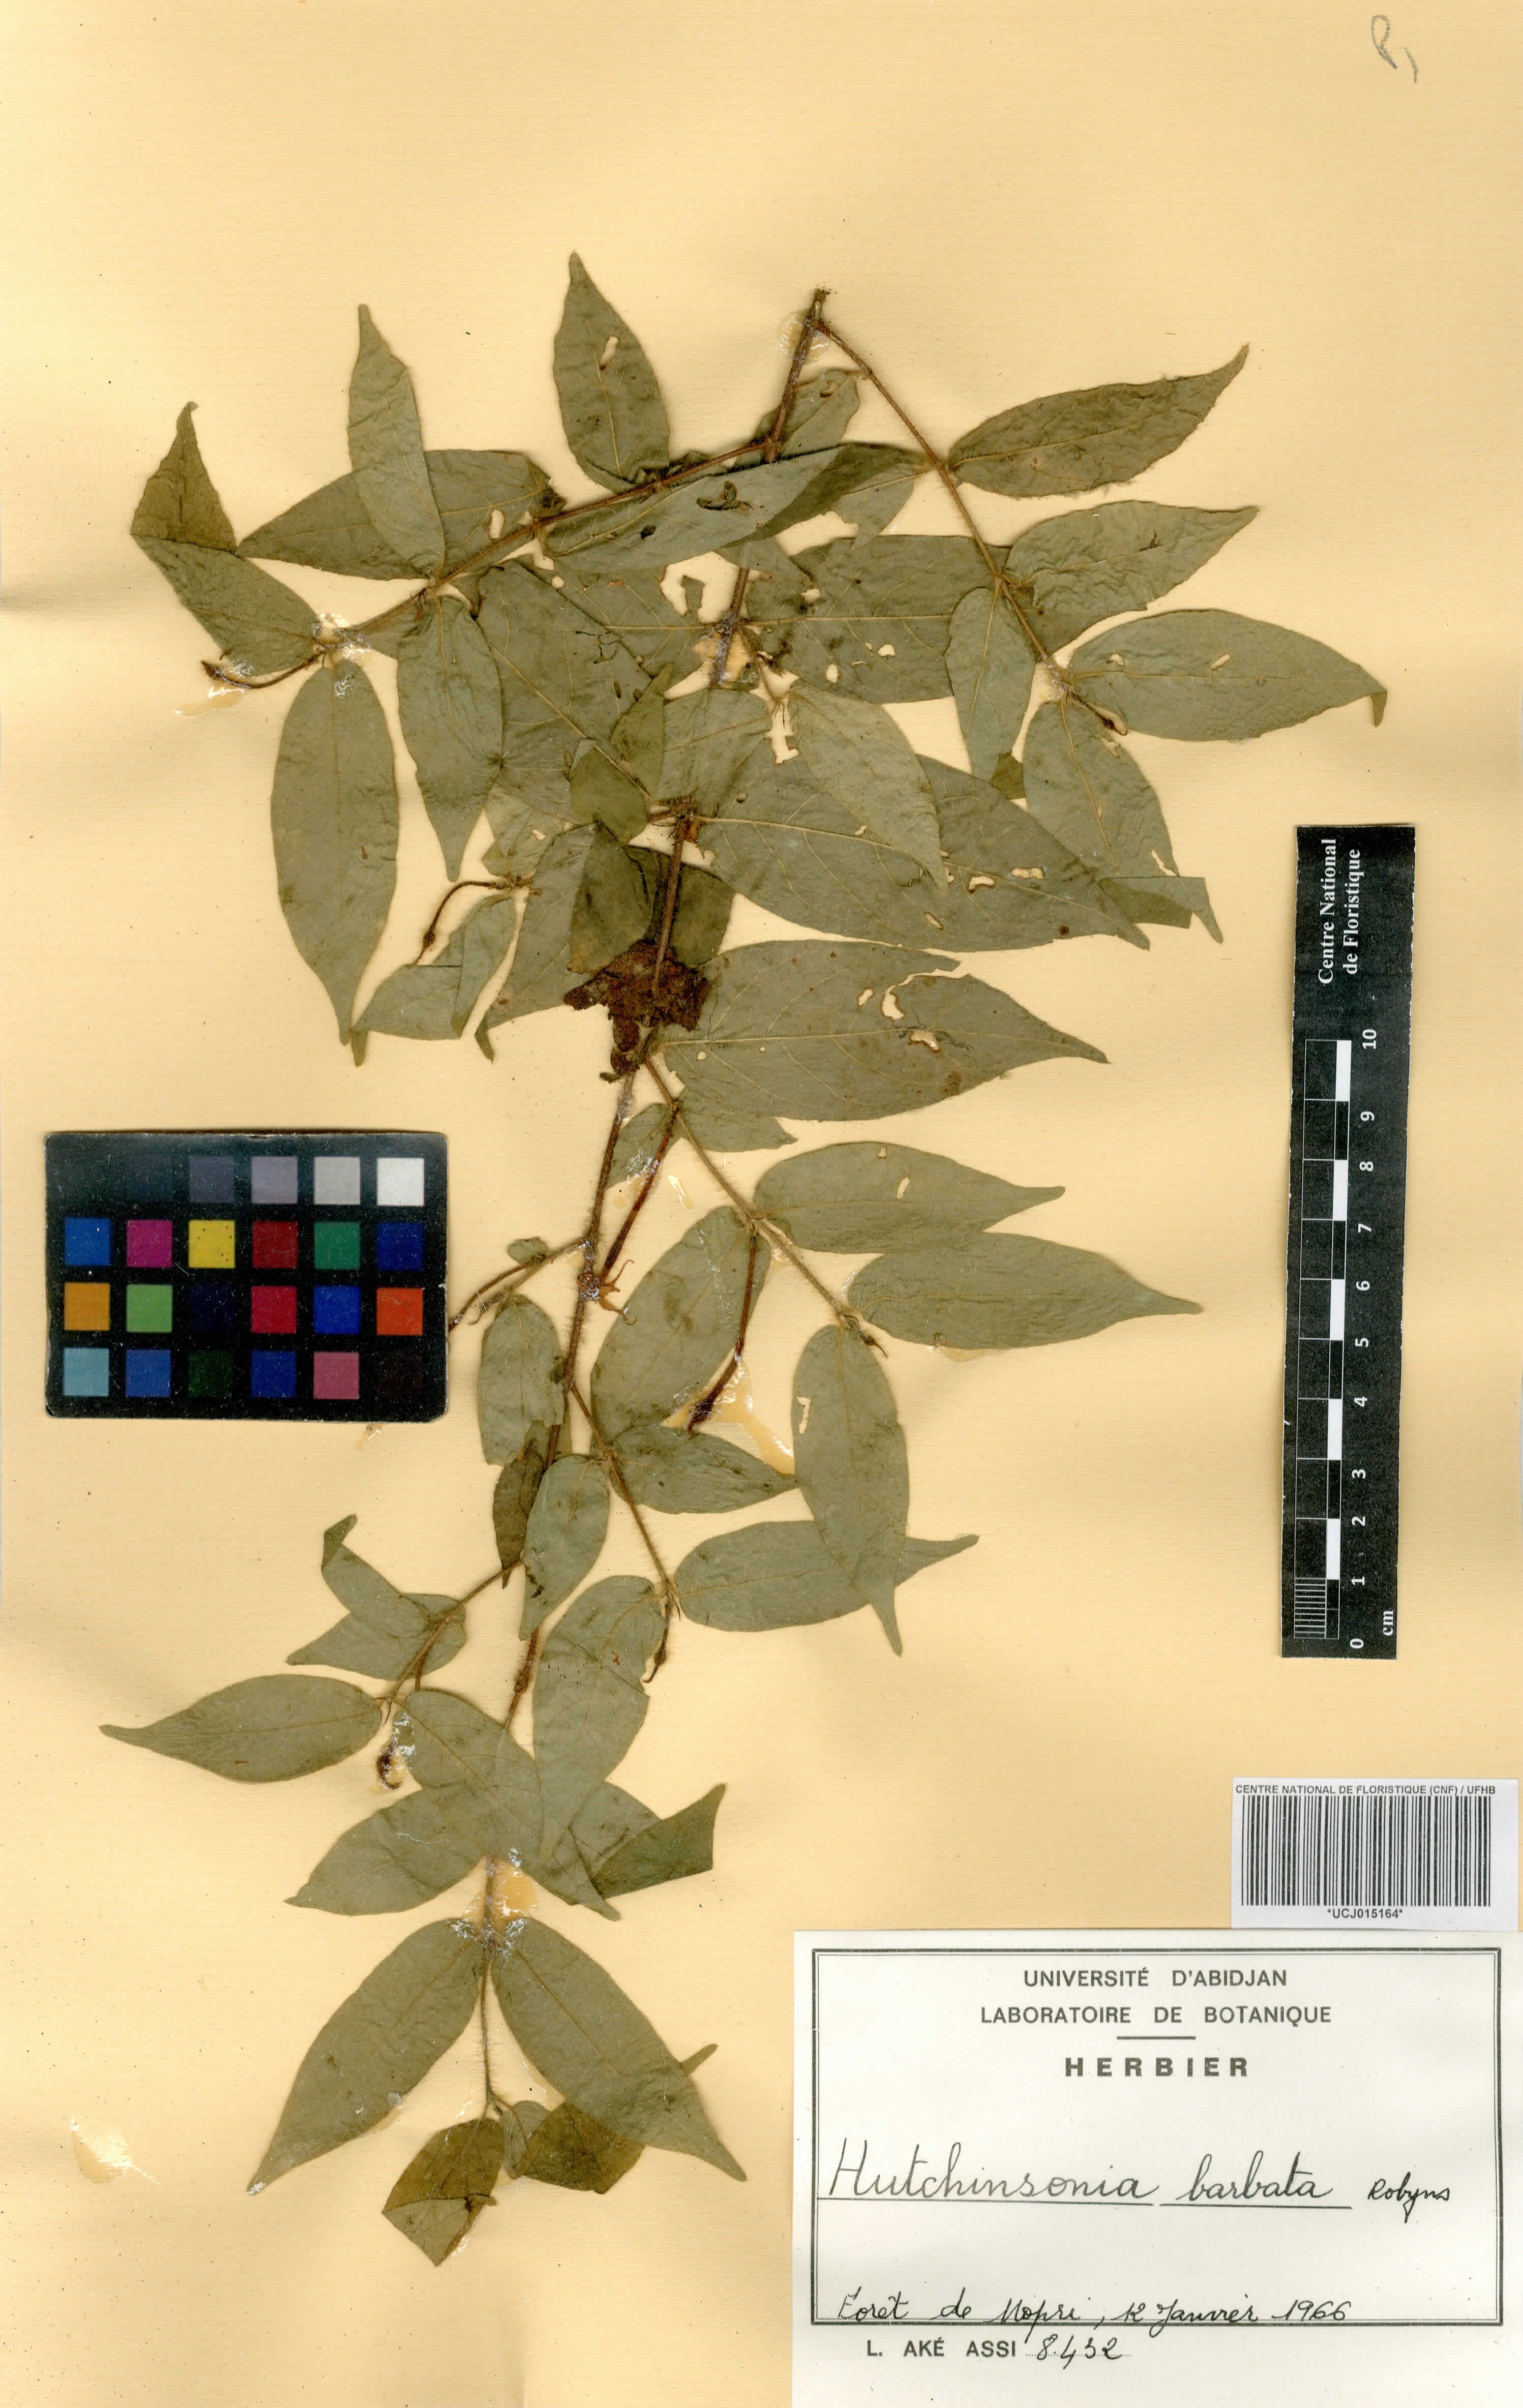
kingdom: Plantae
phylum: Tracheophyta
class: Magnoliopsida
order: Gentianales
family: Rubiaceae
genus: Hutchinsonia
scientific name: Hutchinsonia barbata
